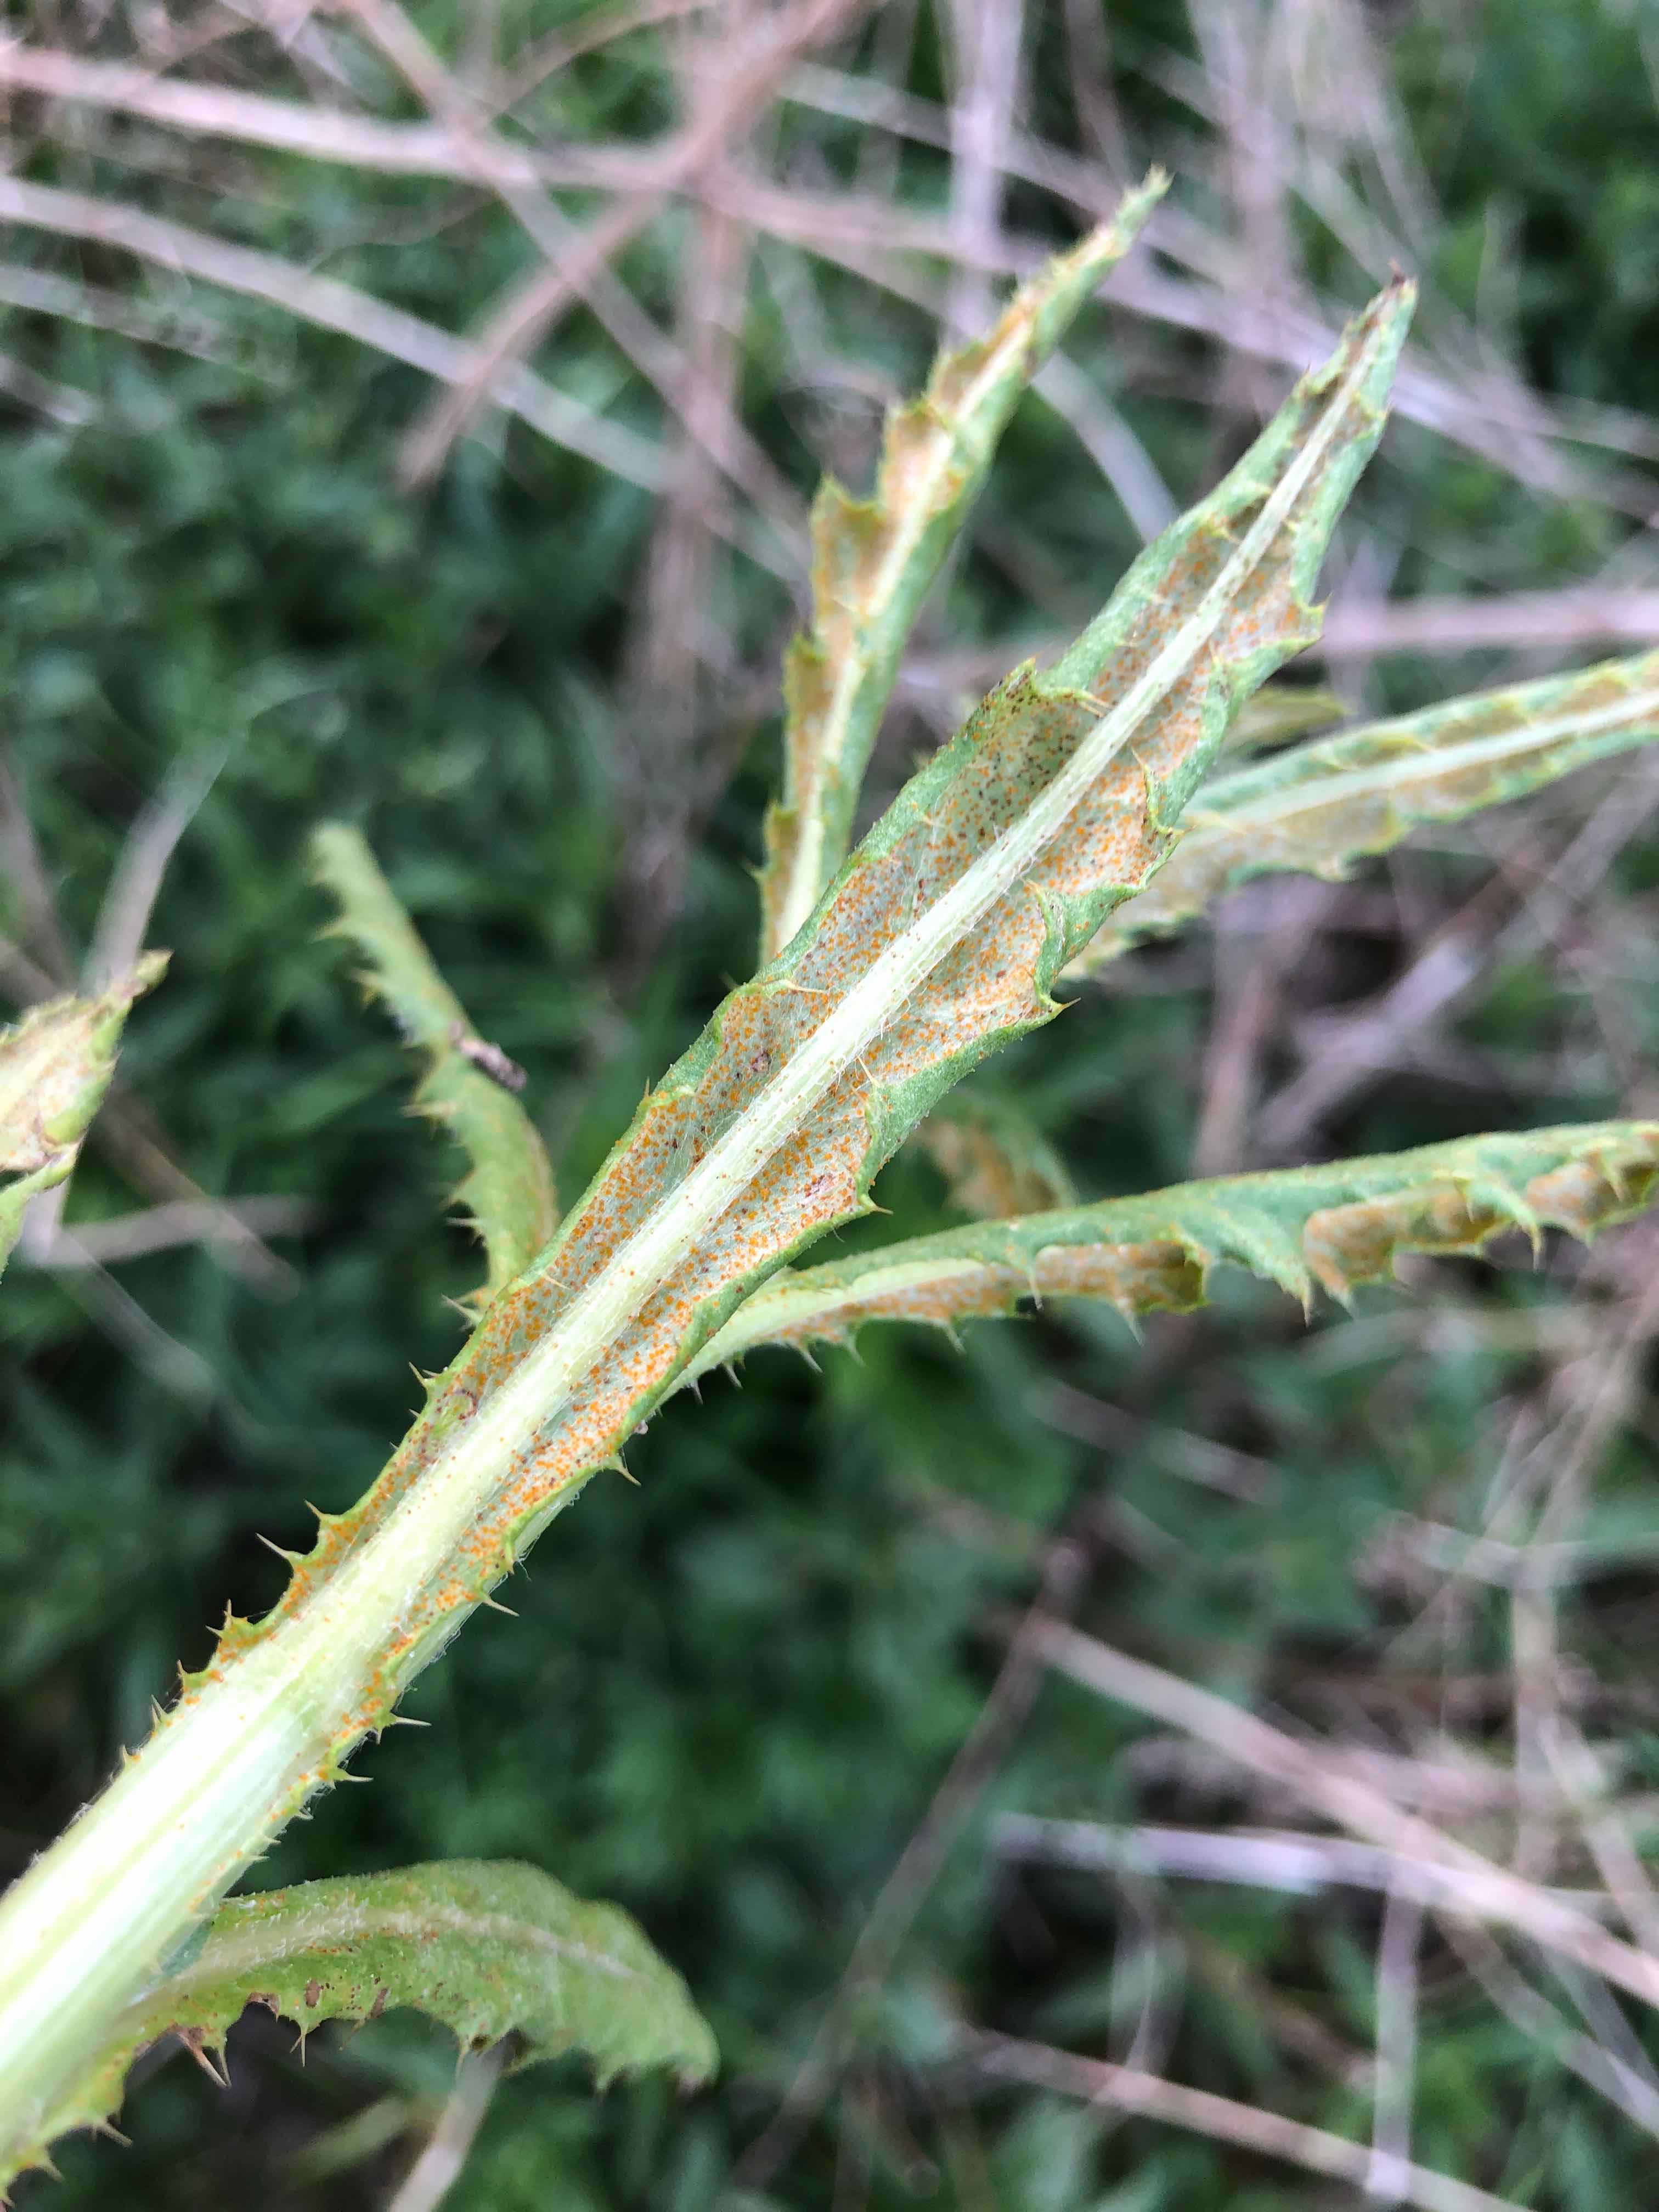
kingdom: Fungi
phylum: Basidiomycota
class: Pucciniomycetes
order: Pucciniales
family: Pucciniaceae
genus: Puccinia
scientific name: Puccinia suaveolens
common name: tidsel-tvecellerust
